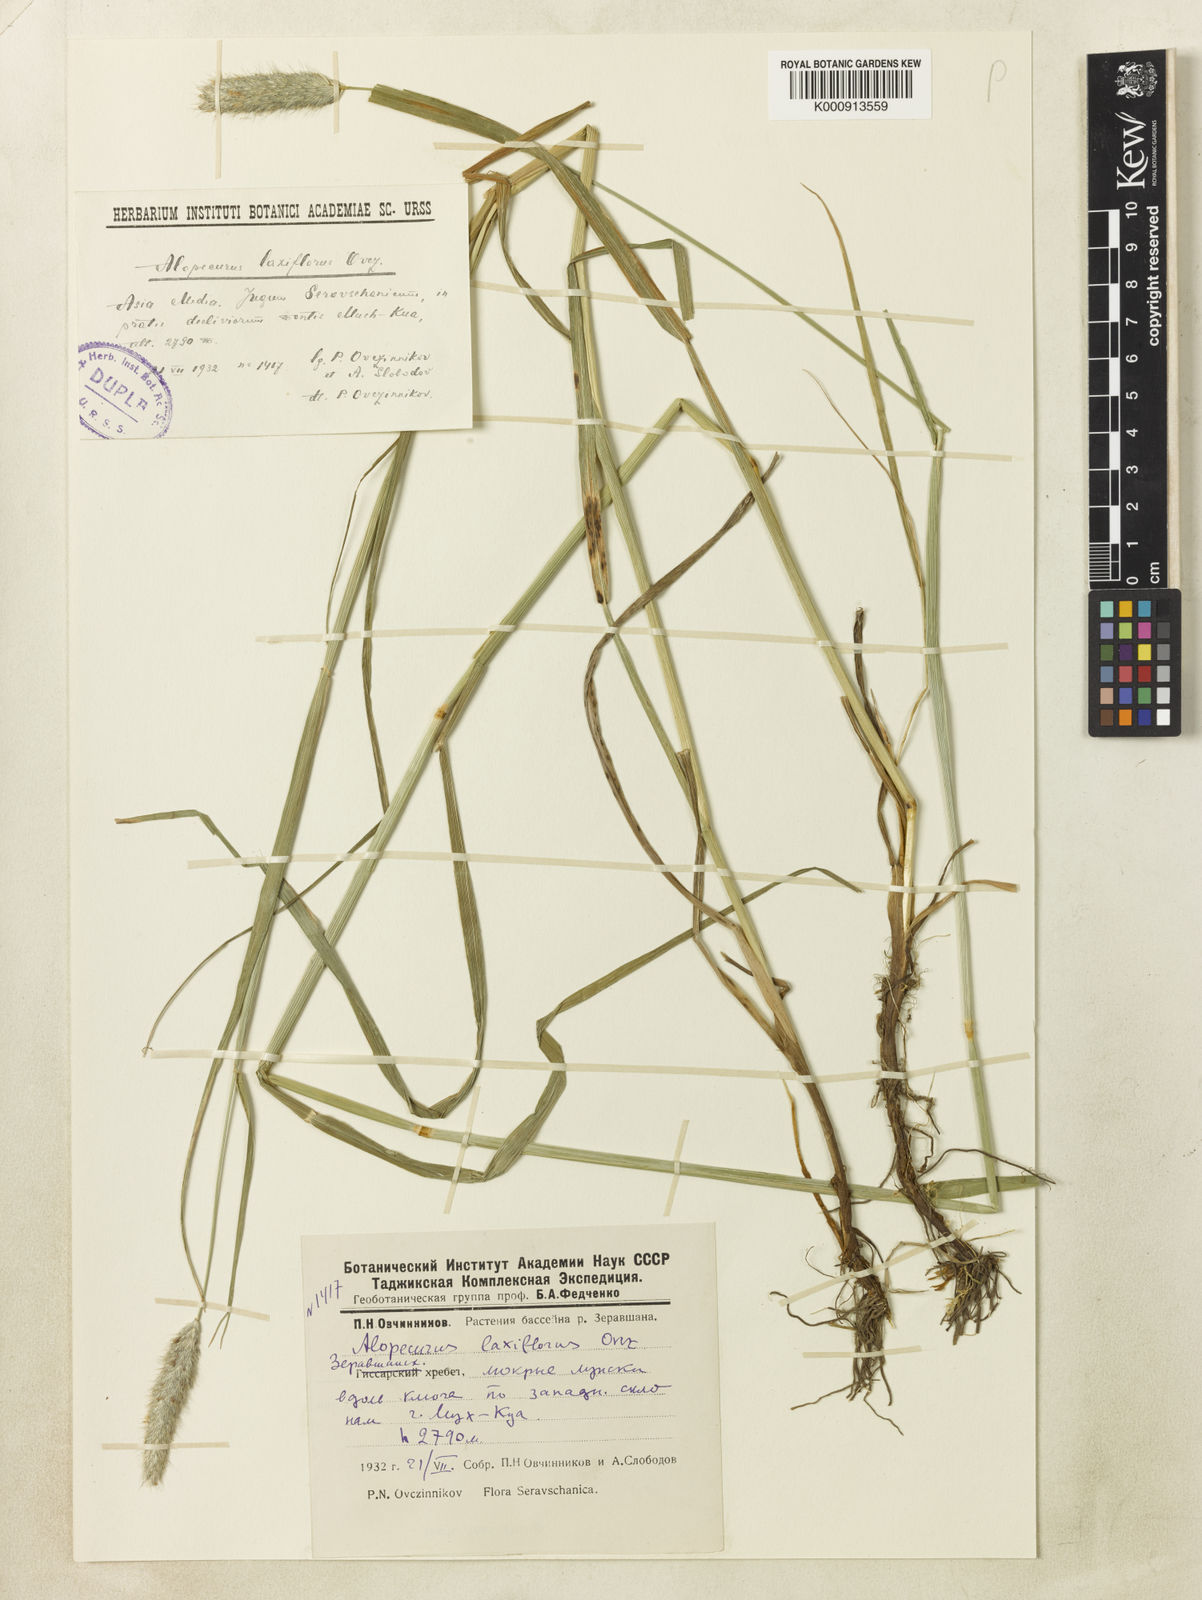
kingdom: Plantae
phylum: Tracheophyta
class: Liliopsida
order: Poales
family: Poaceae
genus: Alopecurus
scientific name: Alopecurus pratensis
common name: Meadow foxtail
